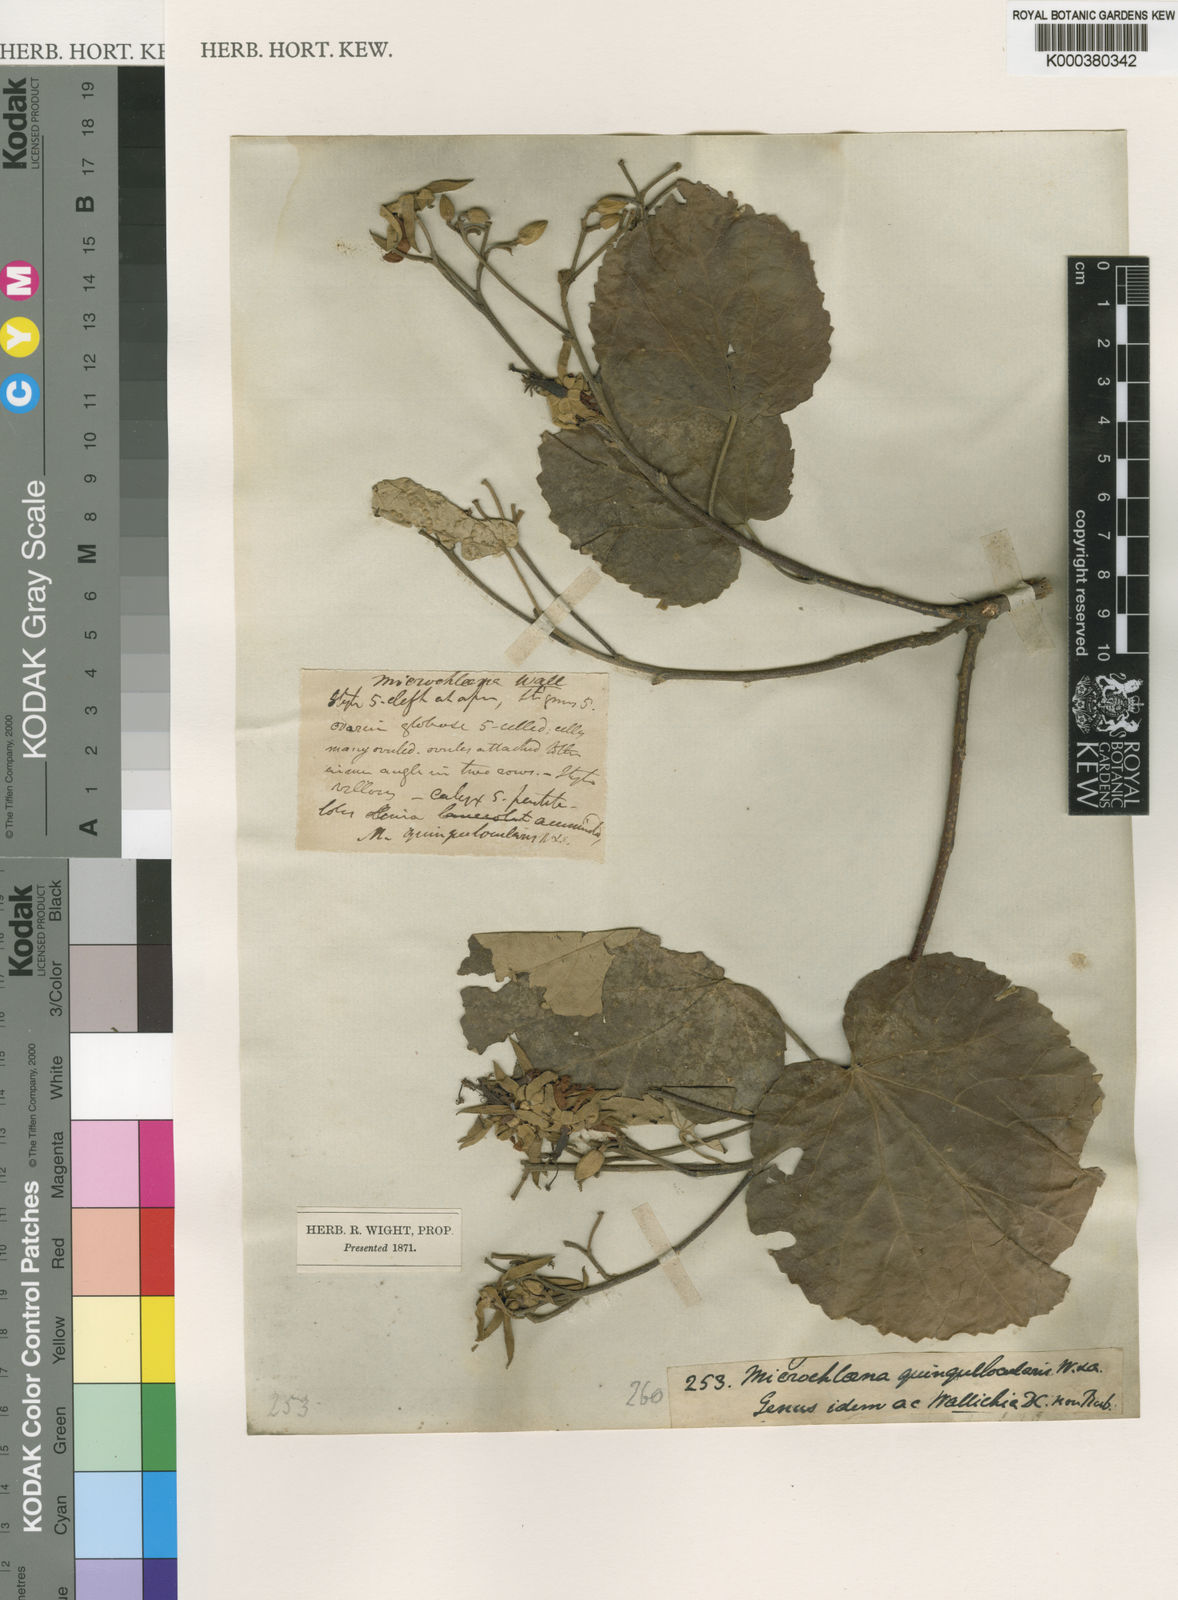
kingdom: Plantae
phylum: Tracheophyta
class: Magnoliopsida
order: Malvales
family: Malvaceae
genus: Eriolaena
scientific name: Eriolaena quinquelocularis
